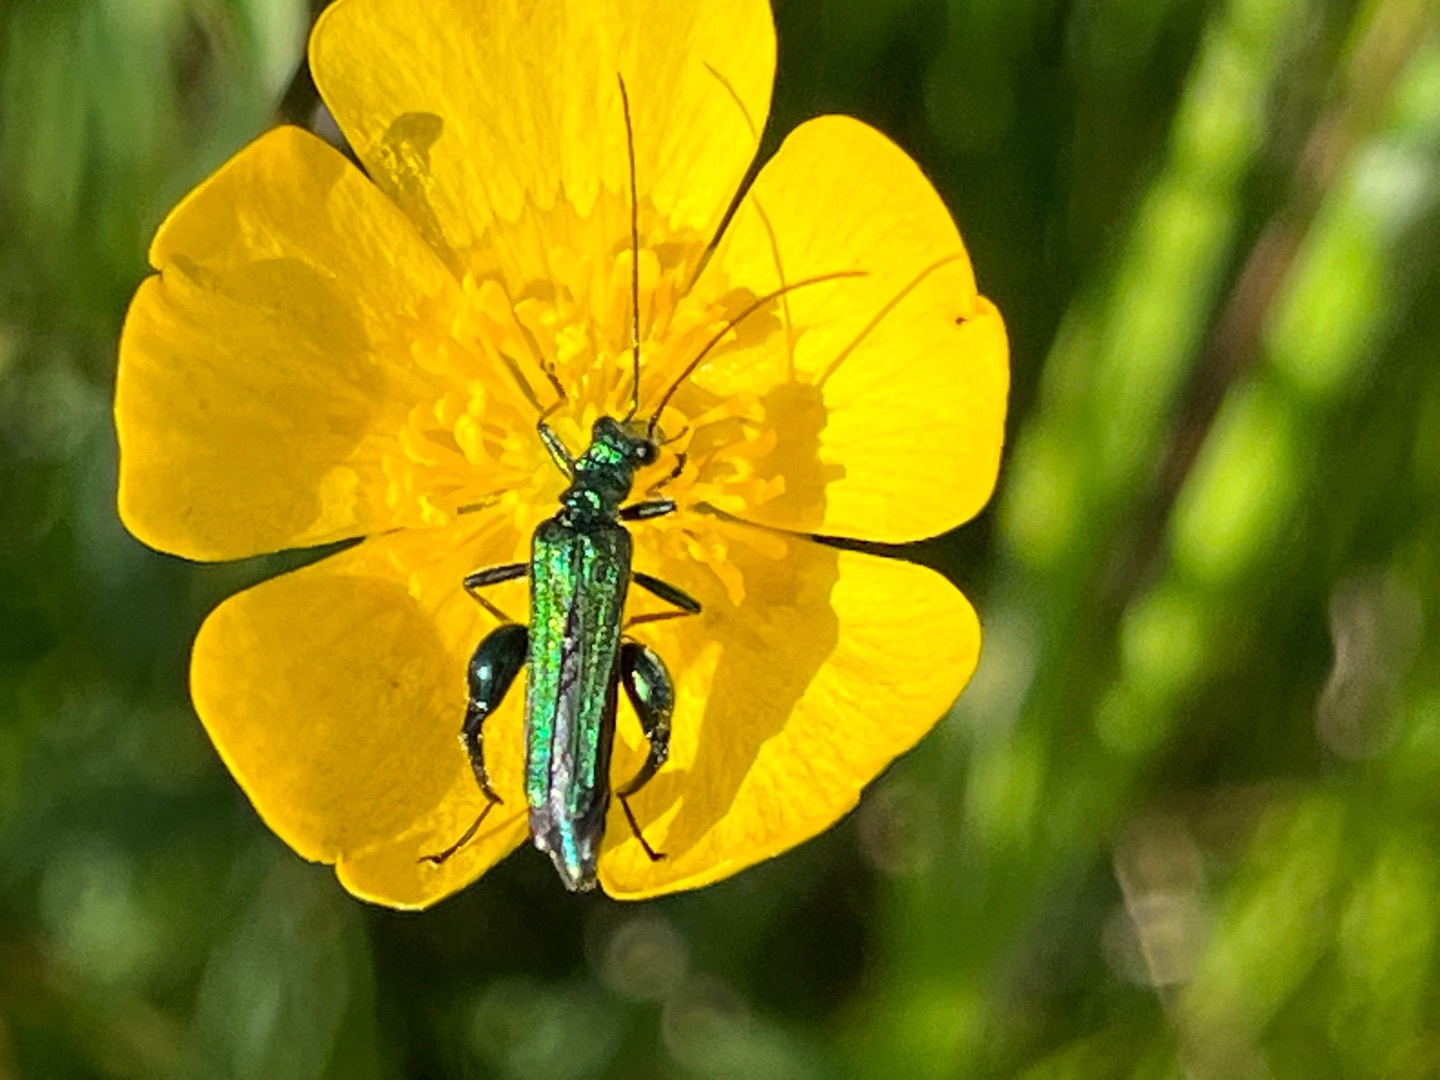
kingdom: Animalia
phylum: Arthropoda
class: Insecta
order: Coleoptera
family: Oedemeridae
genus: Oedemera
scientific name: Oedemera nobilis
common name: Tyklårssolbille
